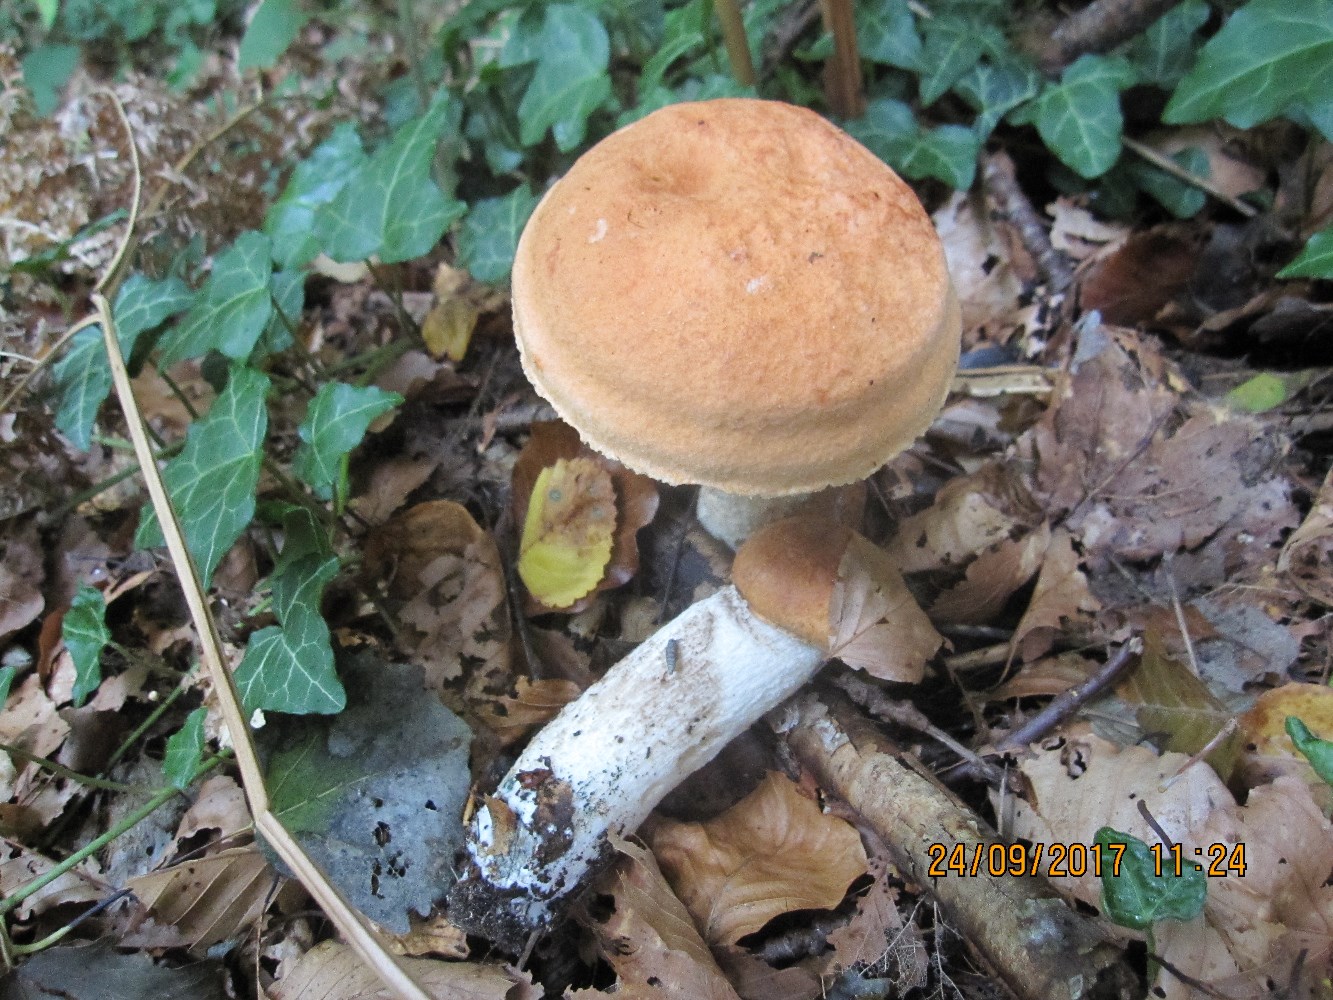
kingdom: Fungi
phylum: Basidiomycota
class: Agaricomycetes
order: Boletales
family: Boletaceae
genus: Leccinum
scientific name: Leccinum albostipitatum
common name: aspe-skælrørhat
